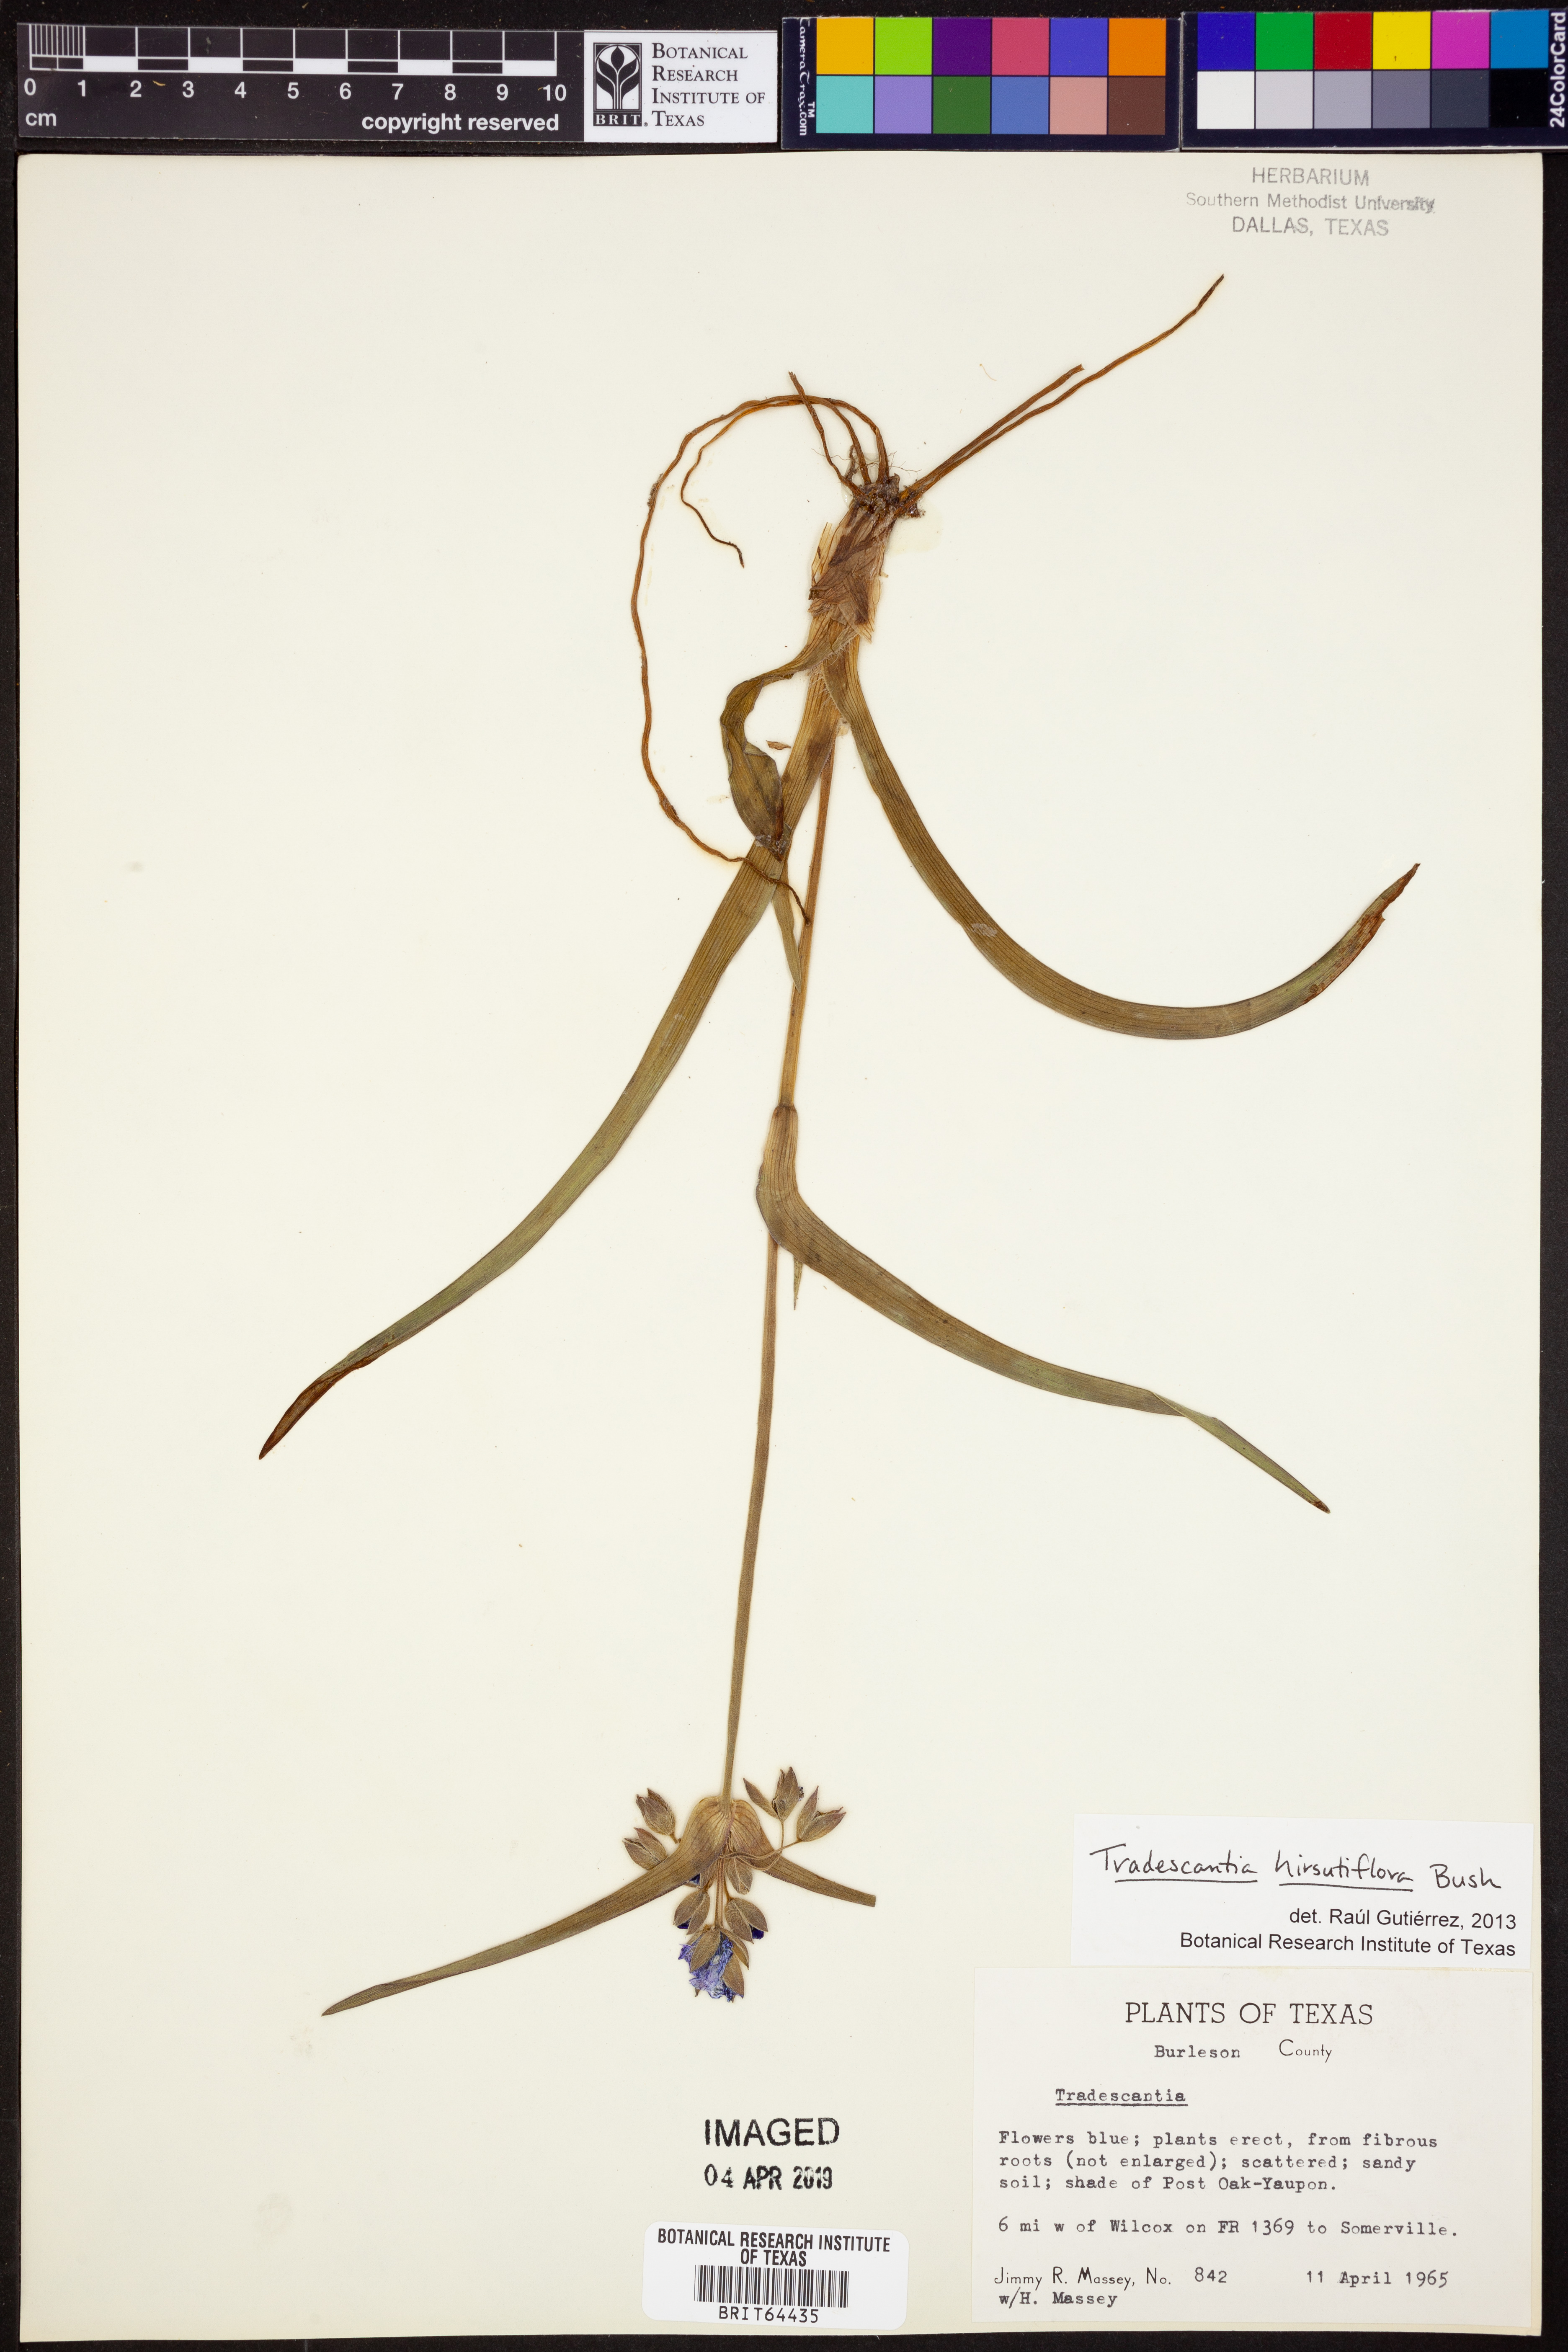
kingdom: Plantae
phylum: Tracheophyta
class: Liliopsida
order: Commelinales
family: Commelinaceae
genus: Tradescantia
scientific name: Tradescantia hirsutiflora
